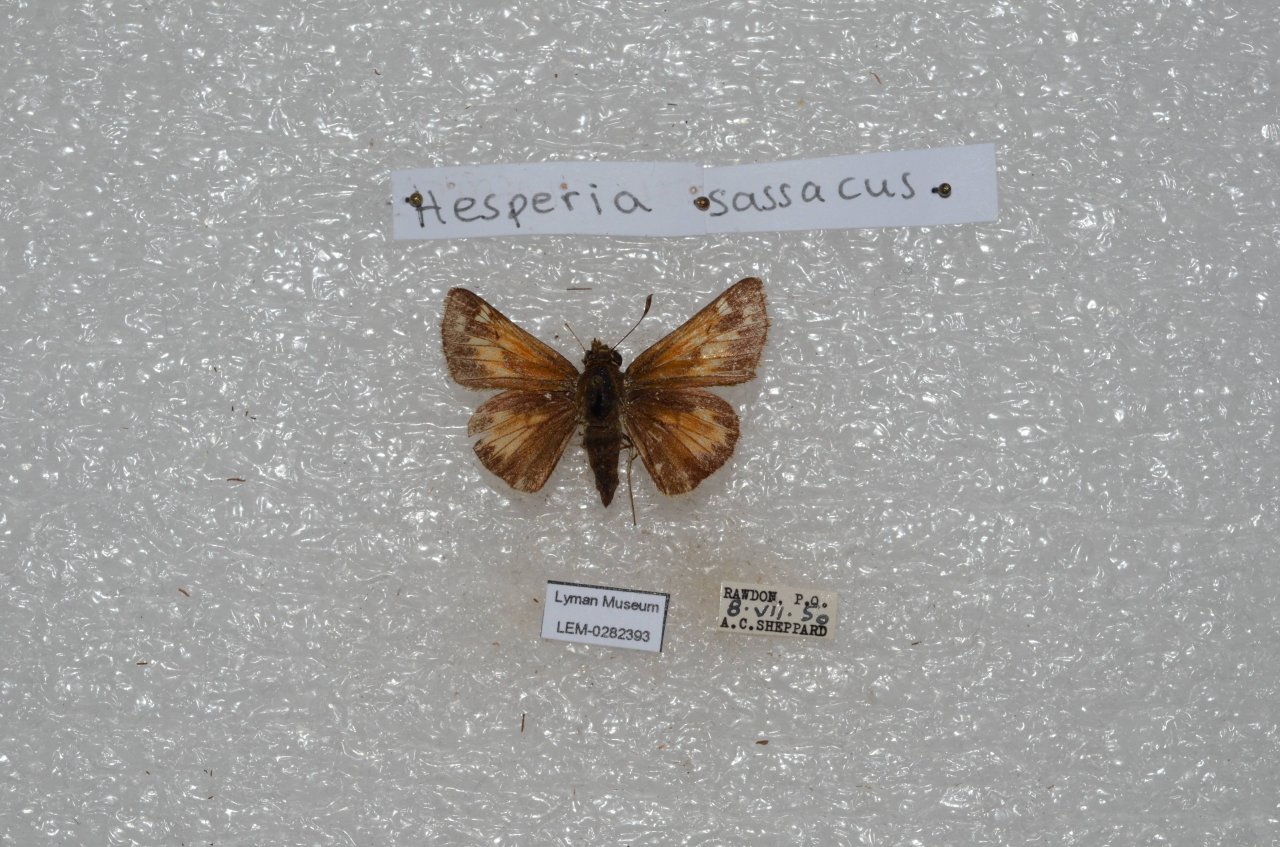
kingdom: Animalia
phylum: Arthropoda
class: Insecta
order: Lepidoptera
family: Hesperiidae
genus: Hesperia
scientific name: Hesperia sassacus
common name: Sassacus Skipper
